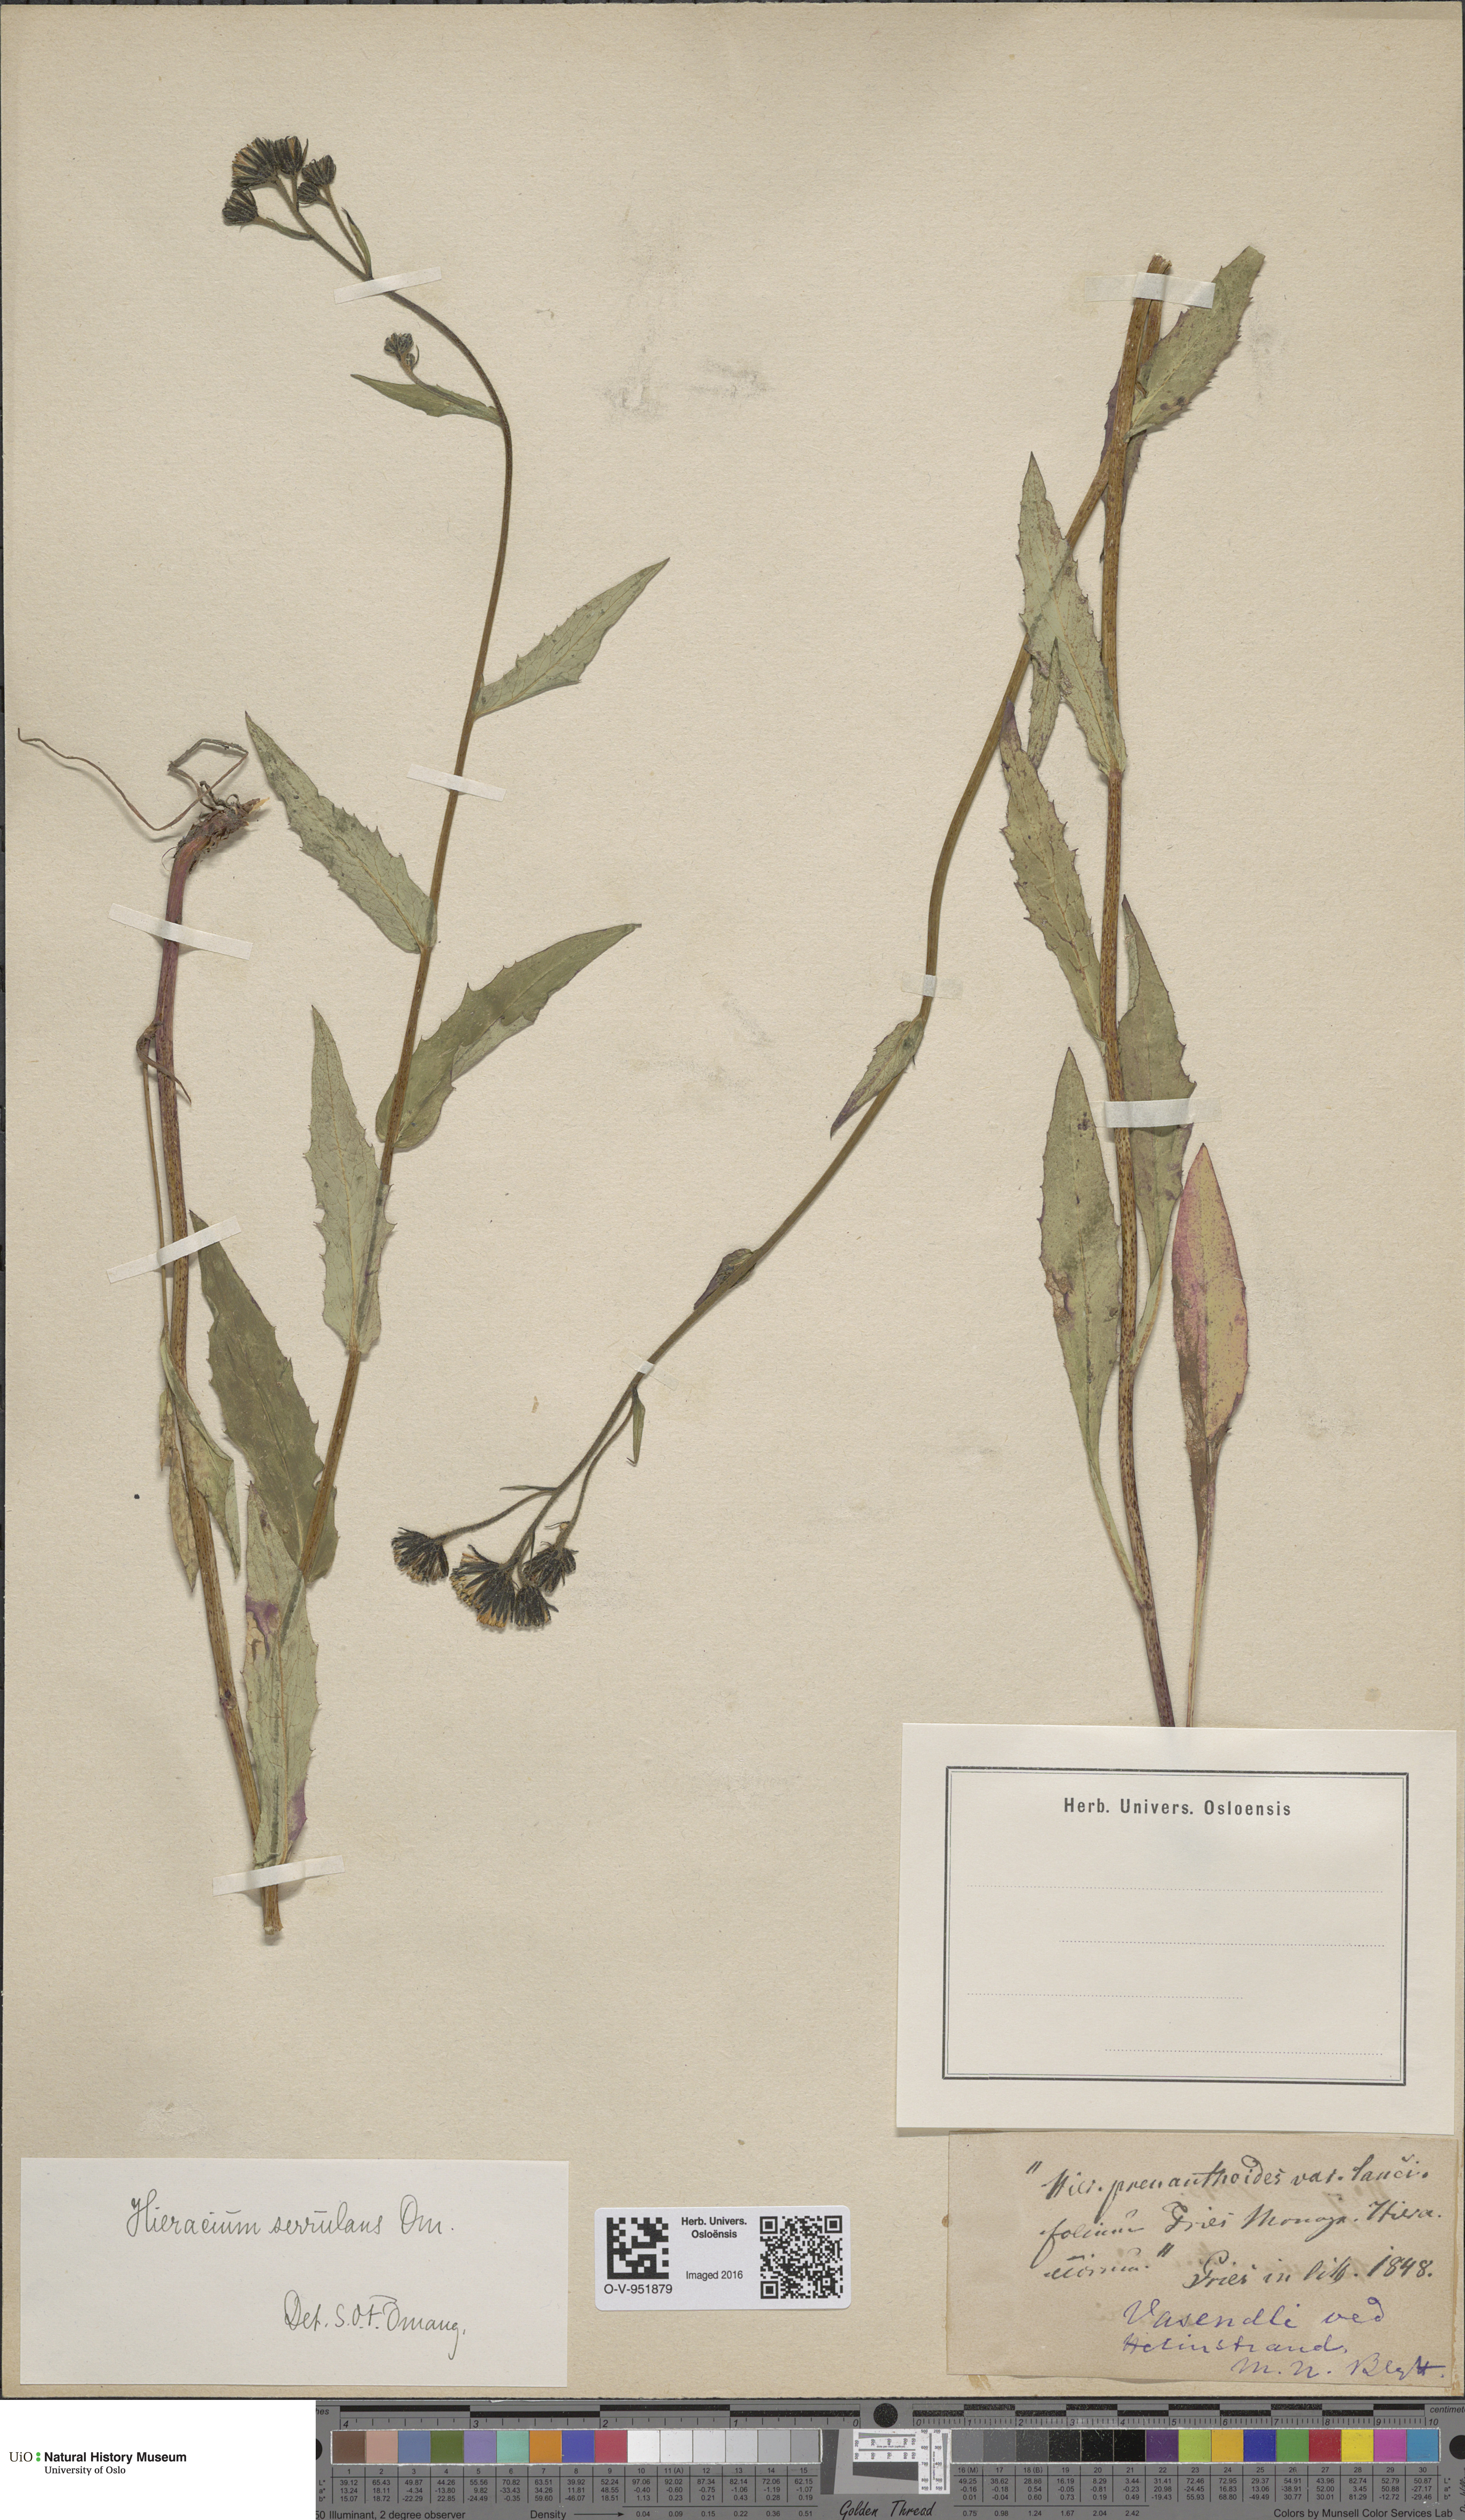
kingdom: Plantae
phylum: Tracheophyta
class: Magnoliopsida
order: Asterales
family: Asteraceae
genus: Hieracium
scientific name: Hieracium
